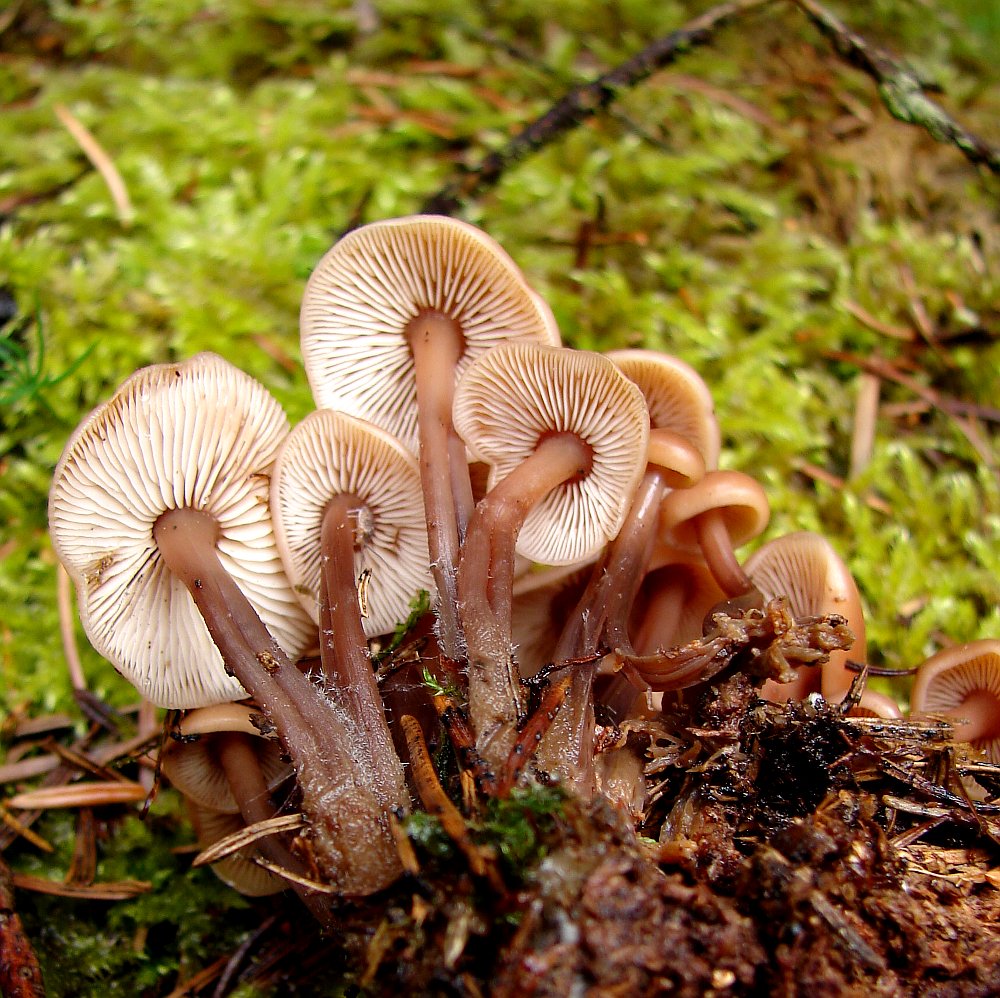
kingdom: Fungi
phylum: Basidiomycota
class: Agaricomycetes
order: Agaricales
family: Omphalotaceae
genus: Connopus
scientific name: Connopus acervatus
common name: tue-fladhat
